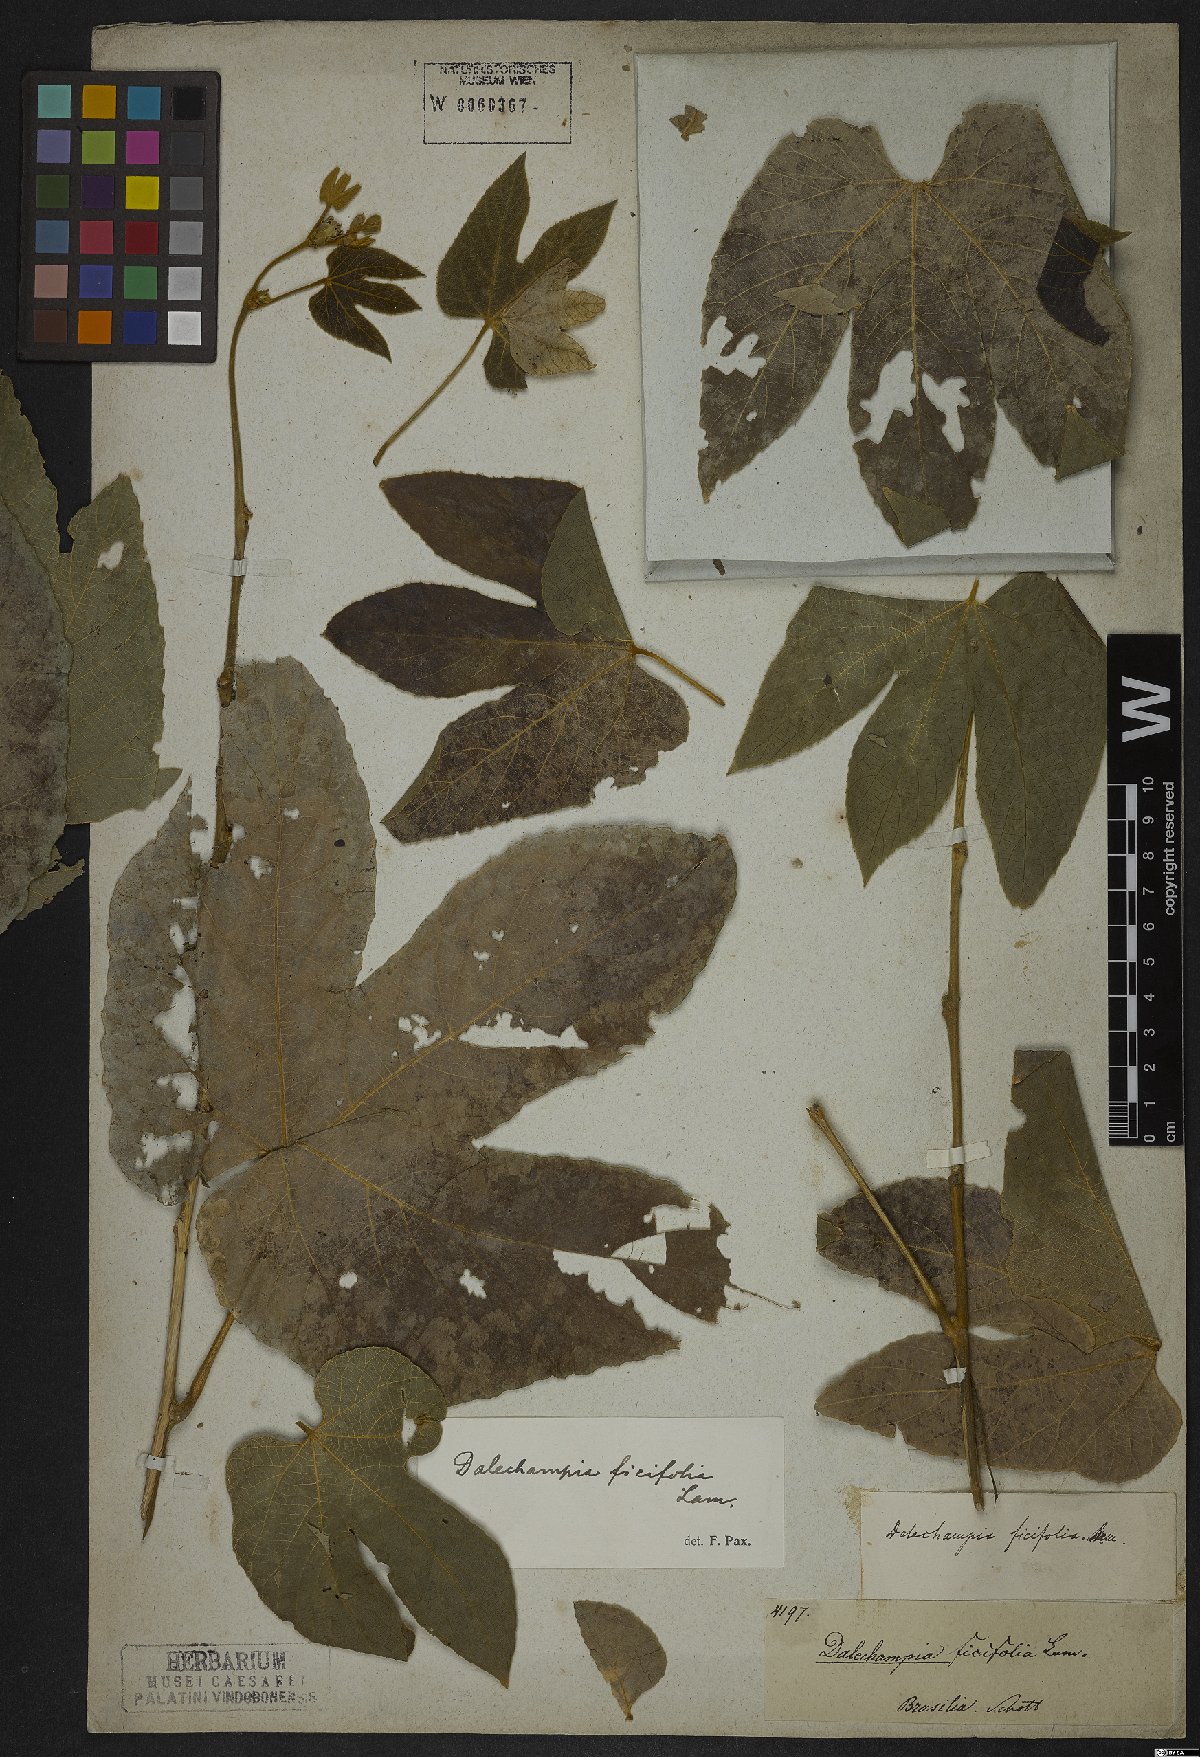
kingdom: Plantae
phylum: Tracheophyta
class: Magnoliopsida
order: Malpighiales
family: Euphorbiaceae
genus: Dalechampia
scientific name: Dalechampia ficifolia
